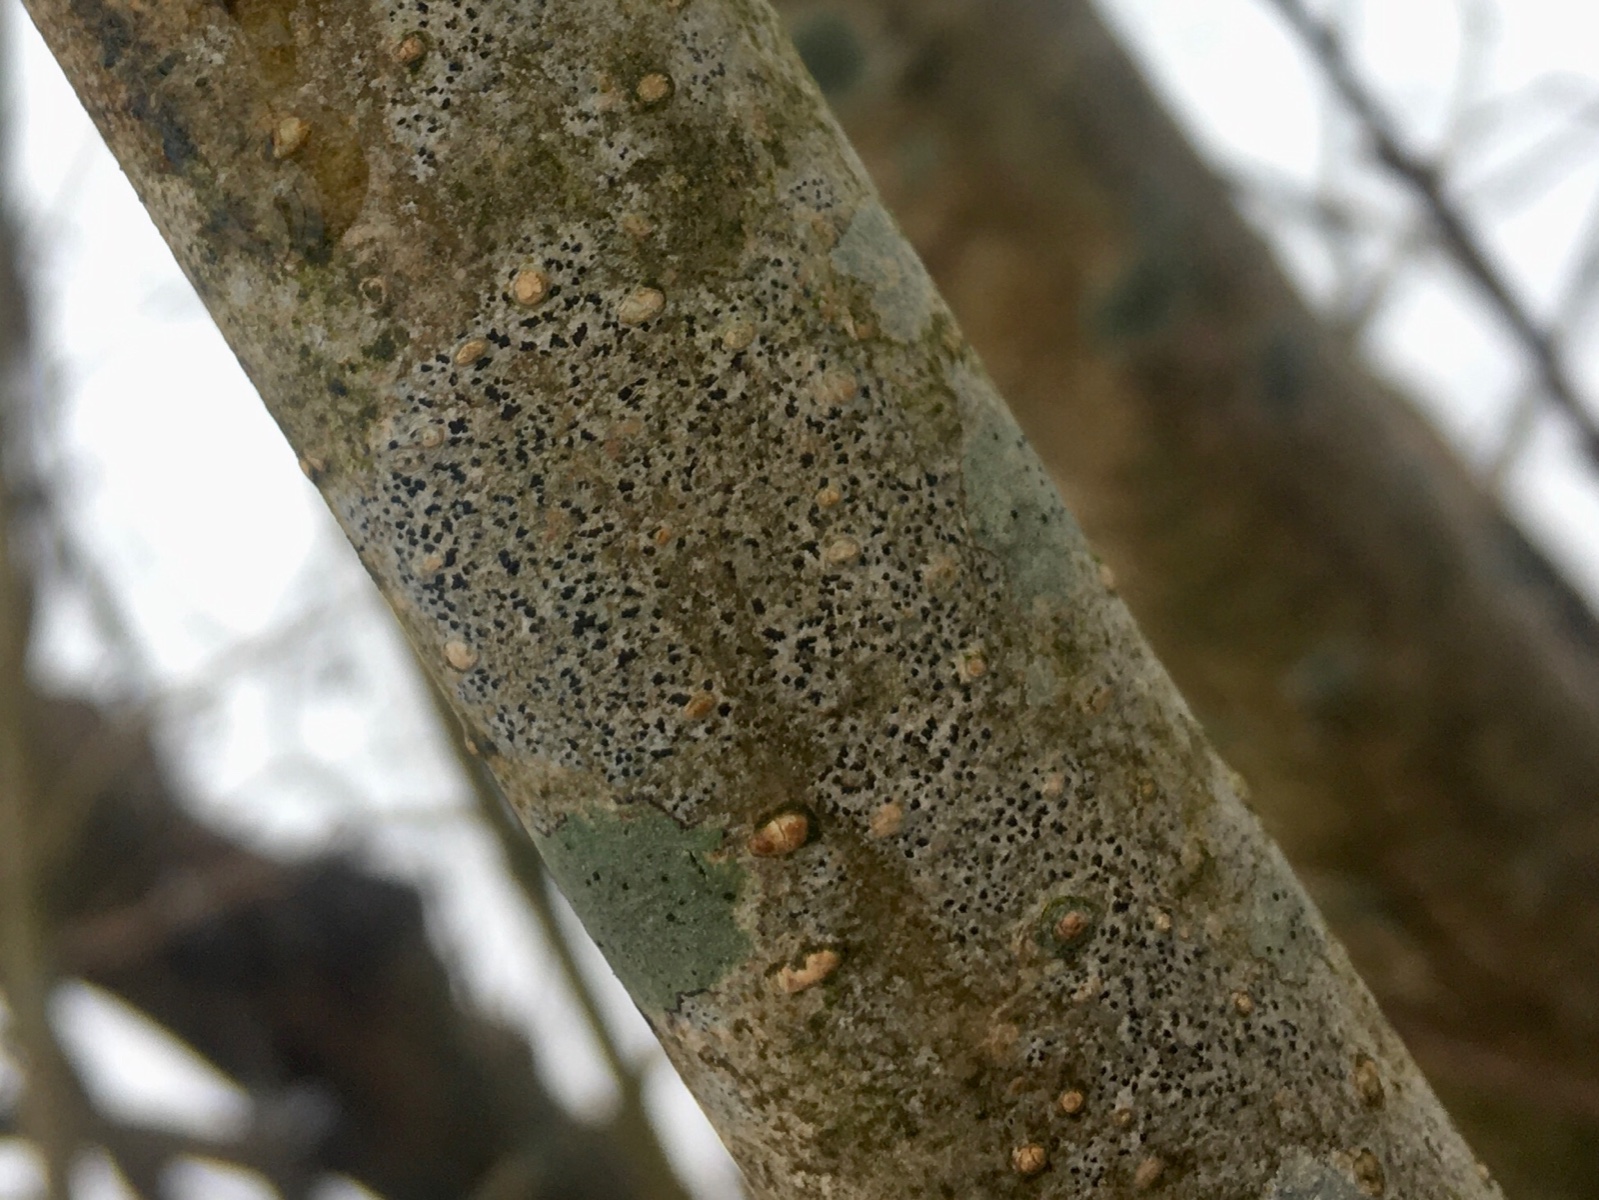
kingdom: Fungi
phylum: Ascomycota
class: Arthoniomycetes
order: Arthoniales
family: Arthoniaceae
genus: Arthonia
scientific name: Arthonia radiata
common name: stjerne-pletlav
